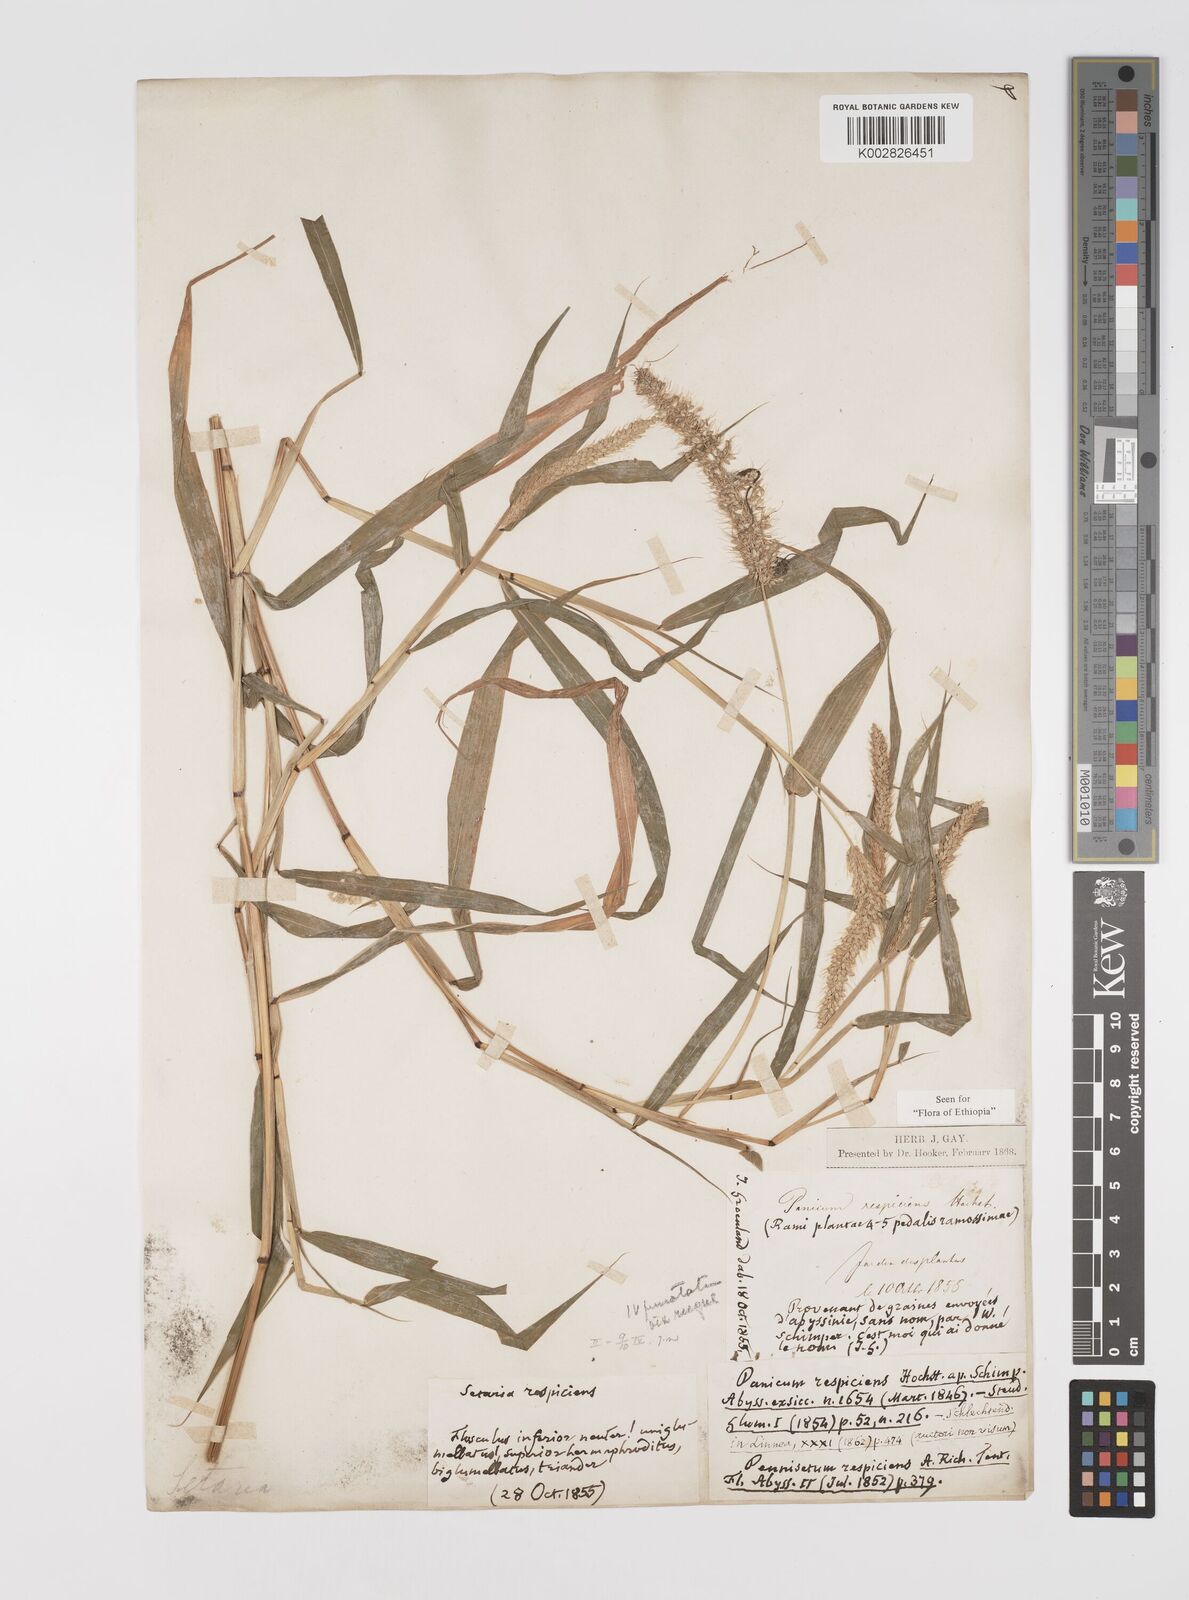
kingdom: Plantae
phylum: Tracheophyta
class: Liliopsida
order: Poales
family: Poaceae
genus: Setaria
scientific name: Setaria verticillata
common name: Hooked bristlegrass
